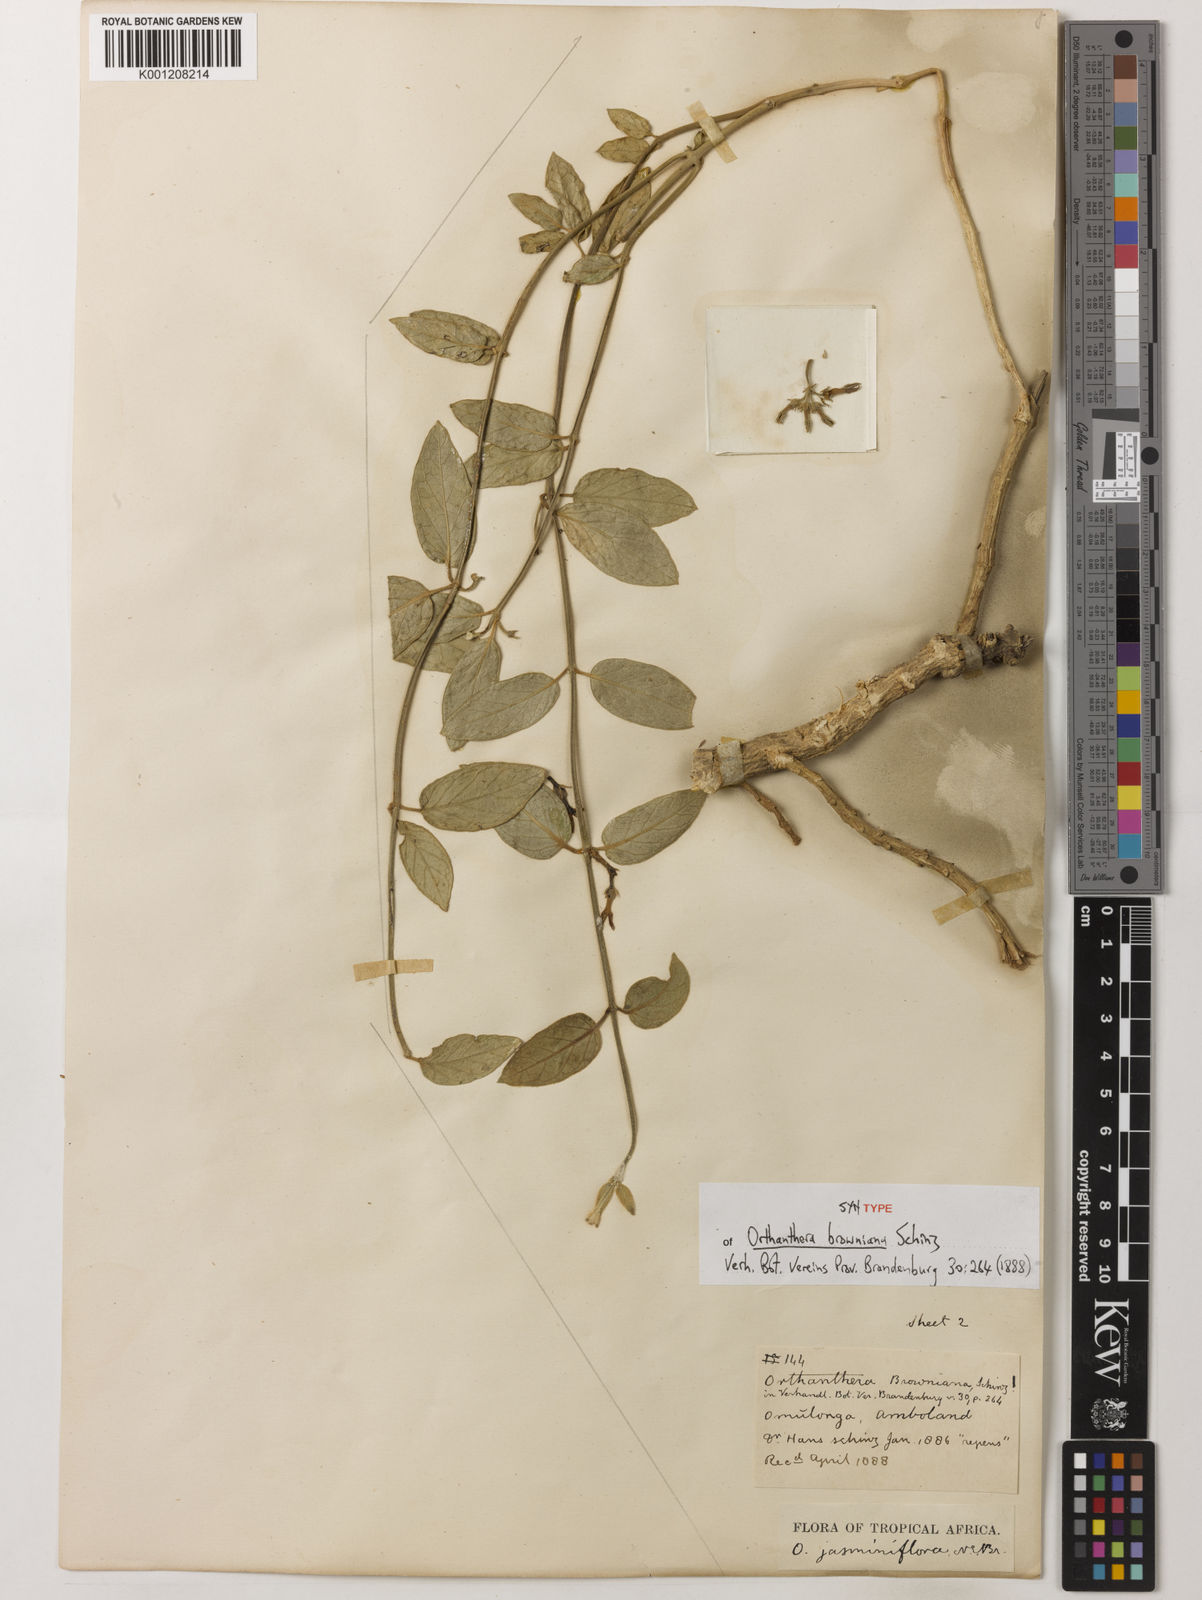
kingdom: Plantae
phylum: Tracheophyta
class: Magnoliopsida
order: Gentianales
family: Apocynaceae
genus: Orthanthera
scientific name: Orthanthera jasminiflora
